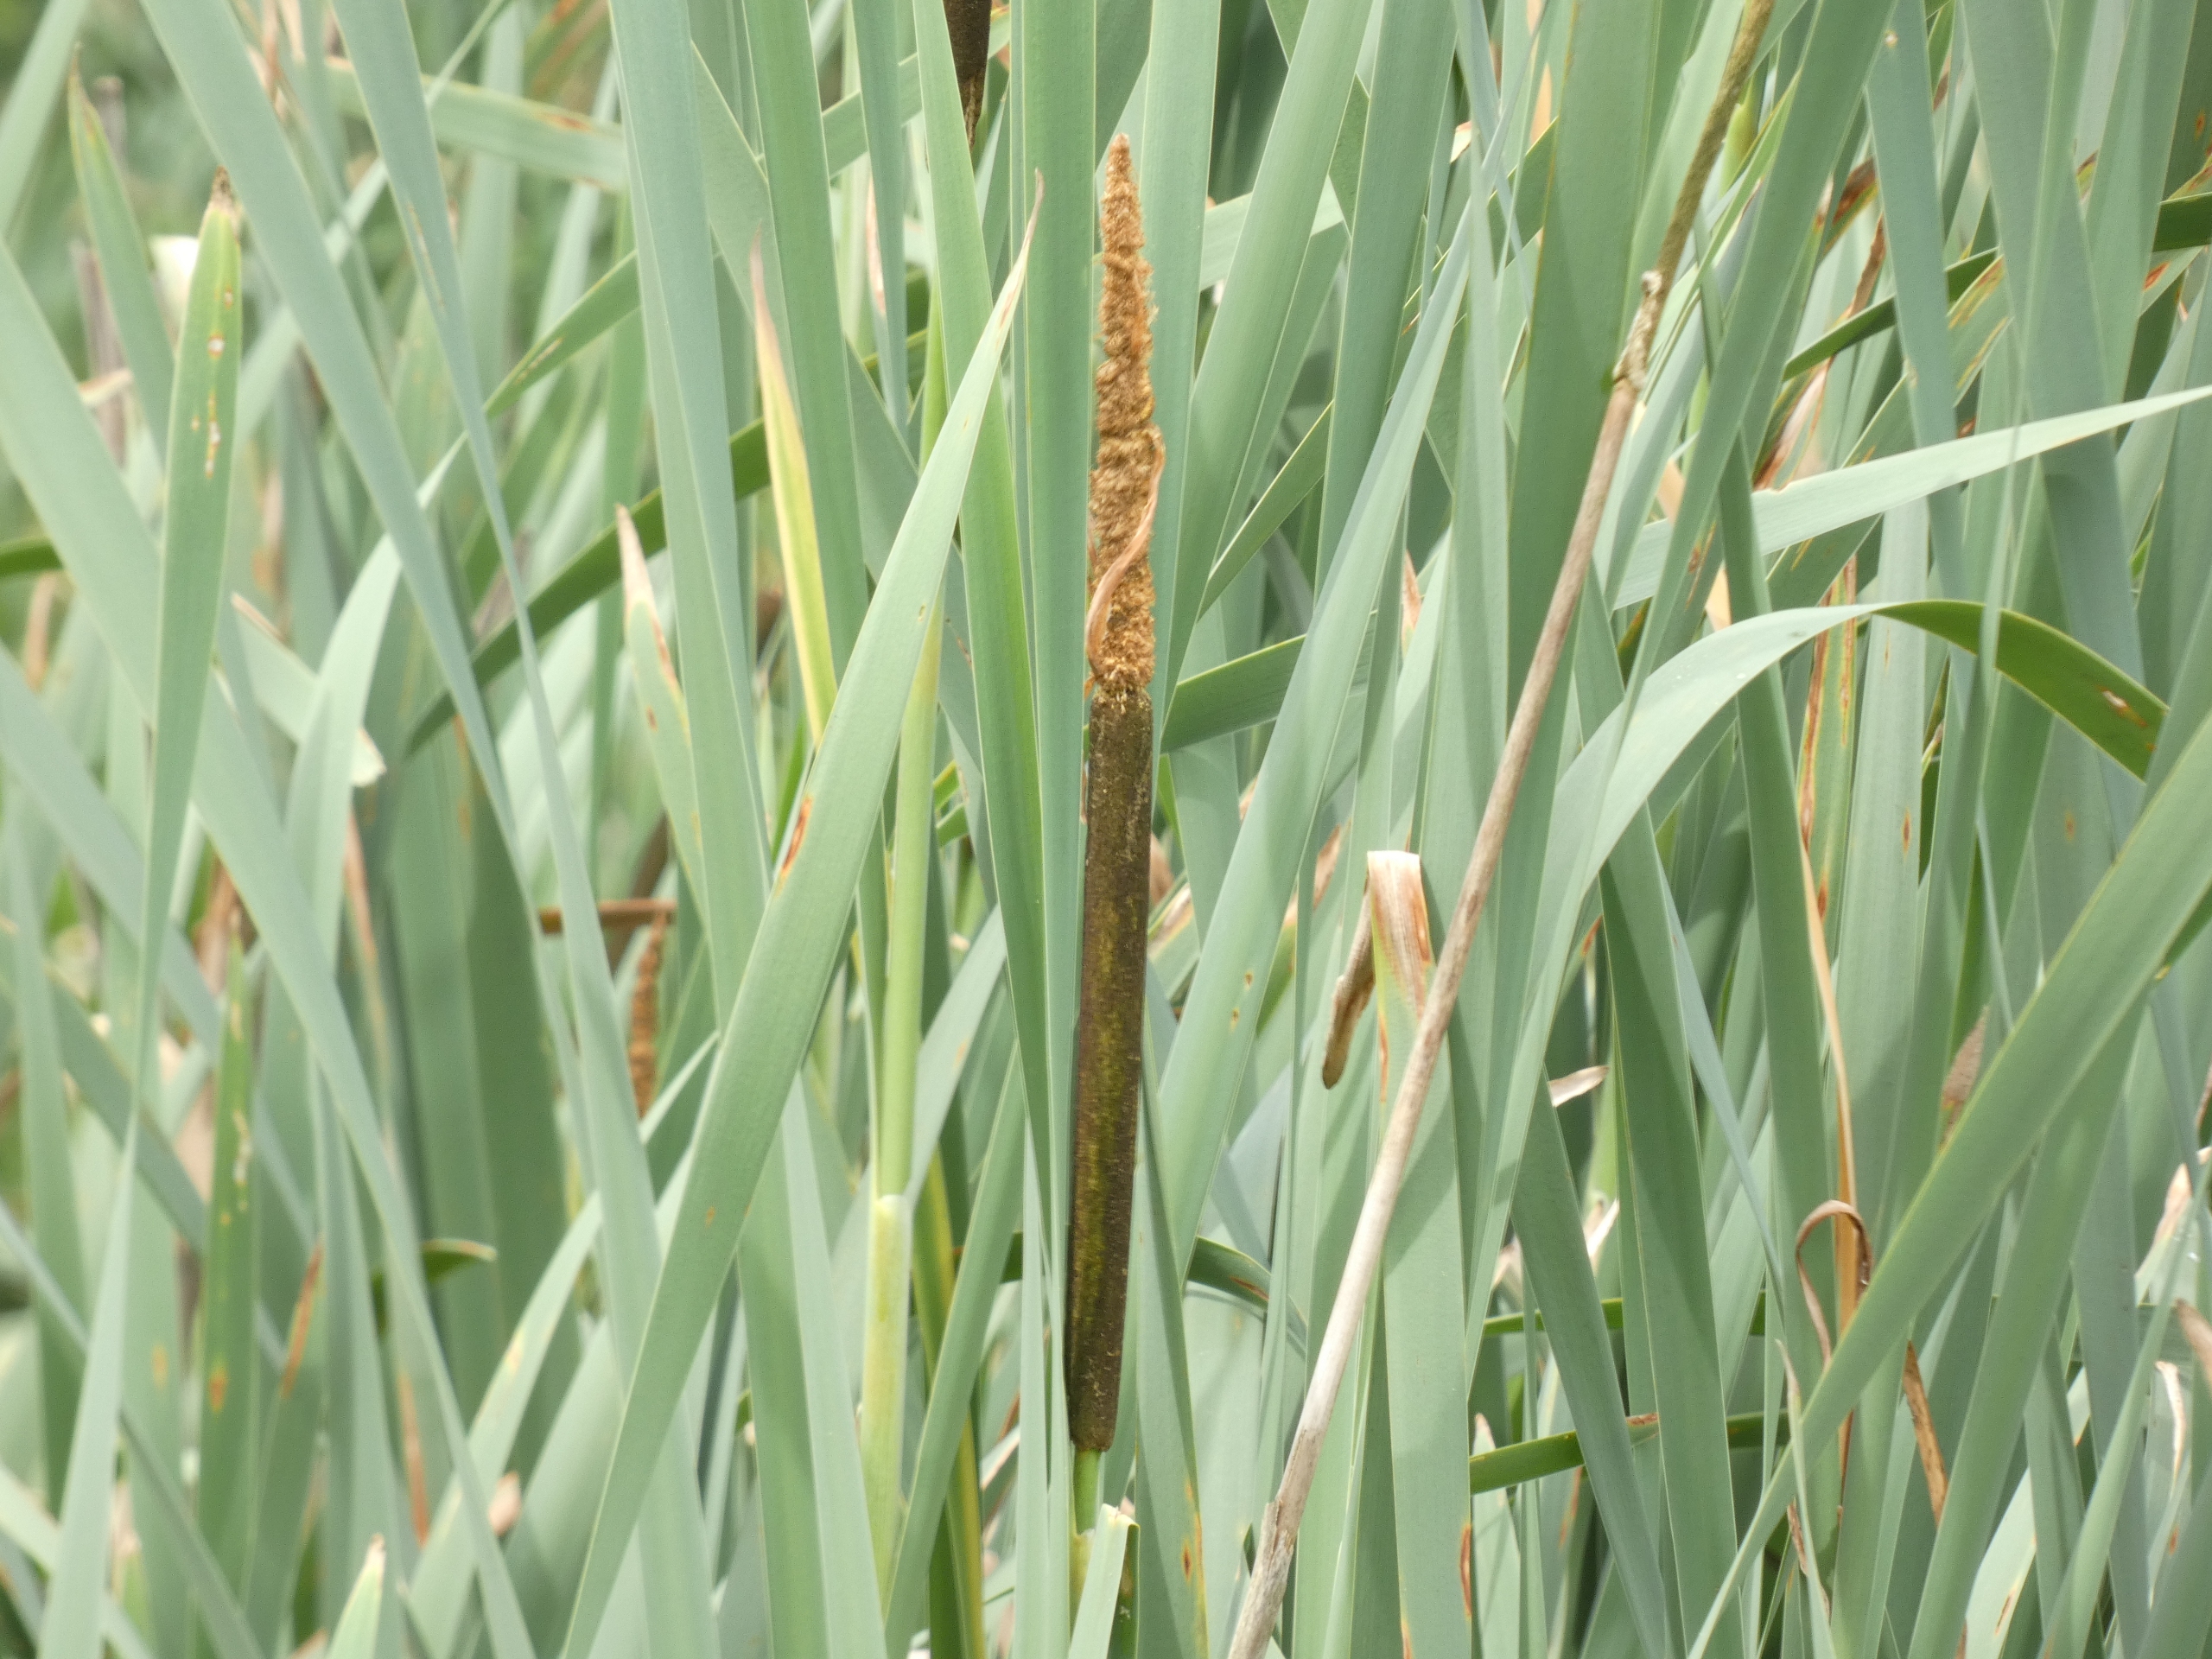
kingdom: Plantae
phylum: Tracheophyta
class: Liliopsida
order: Poales
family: Typhaceae
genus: Typha
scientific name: Typha latifolia
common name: Bredbladet dunhammer
